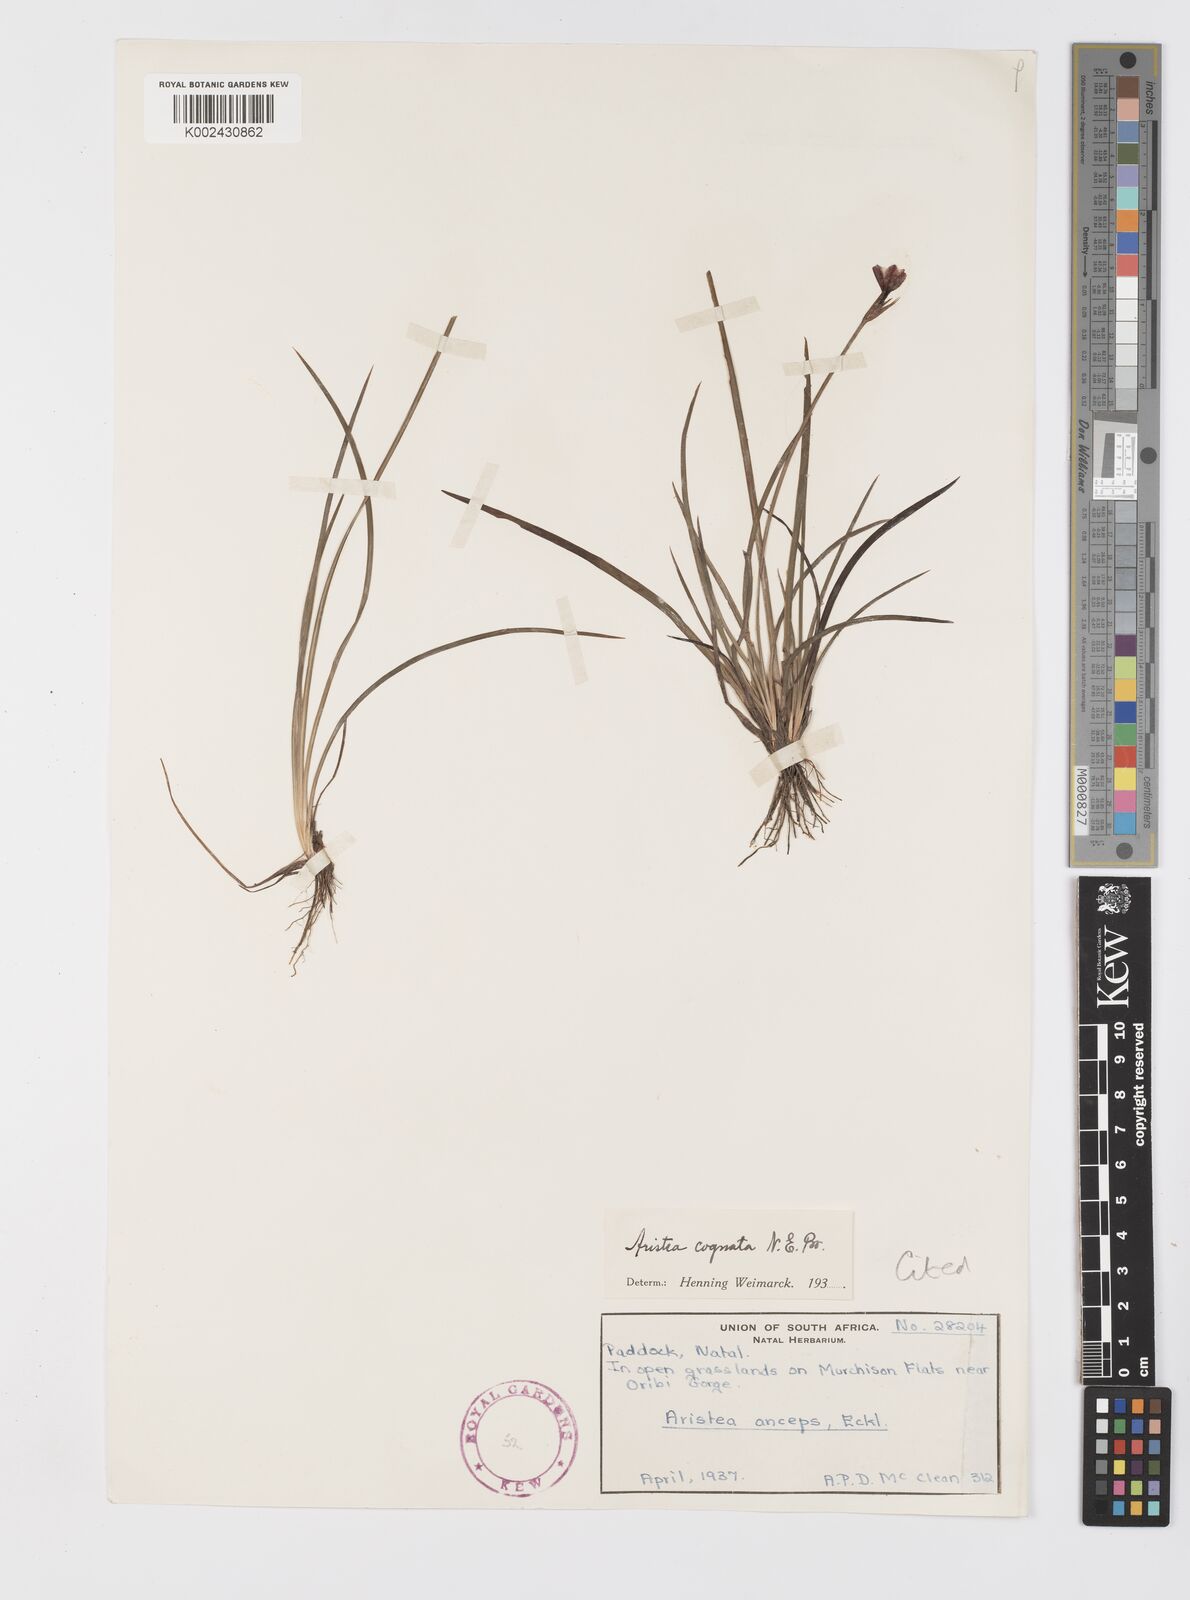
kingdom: Plantae
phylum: Tracheophyta
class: Liliopsida
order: Asparagales
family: Iridaceae
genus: Aristea
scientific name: Aristea abyssinica
